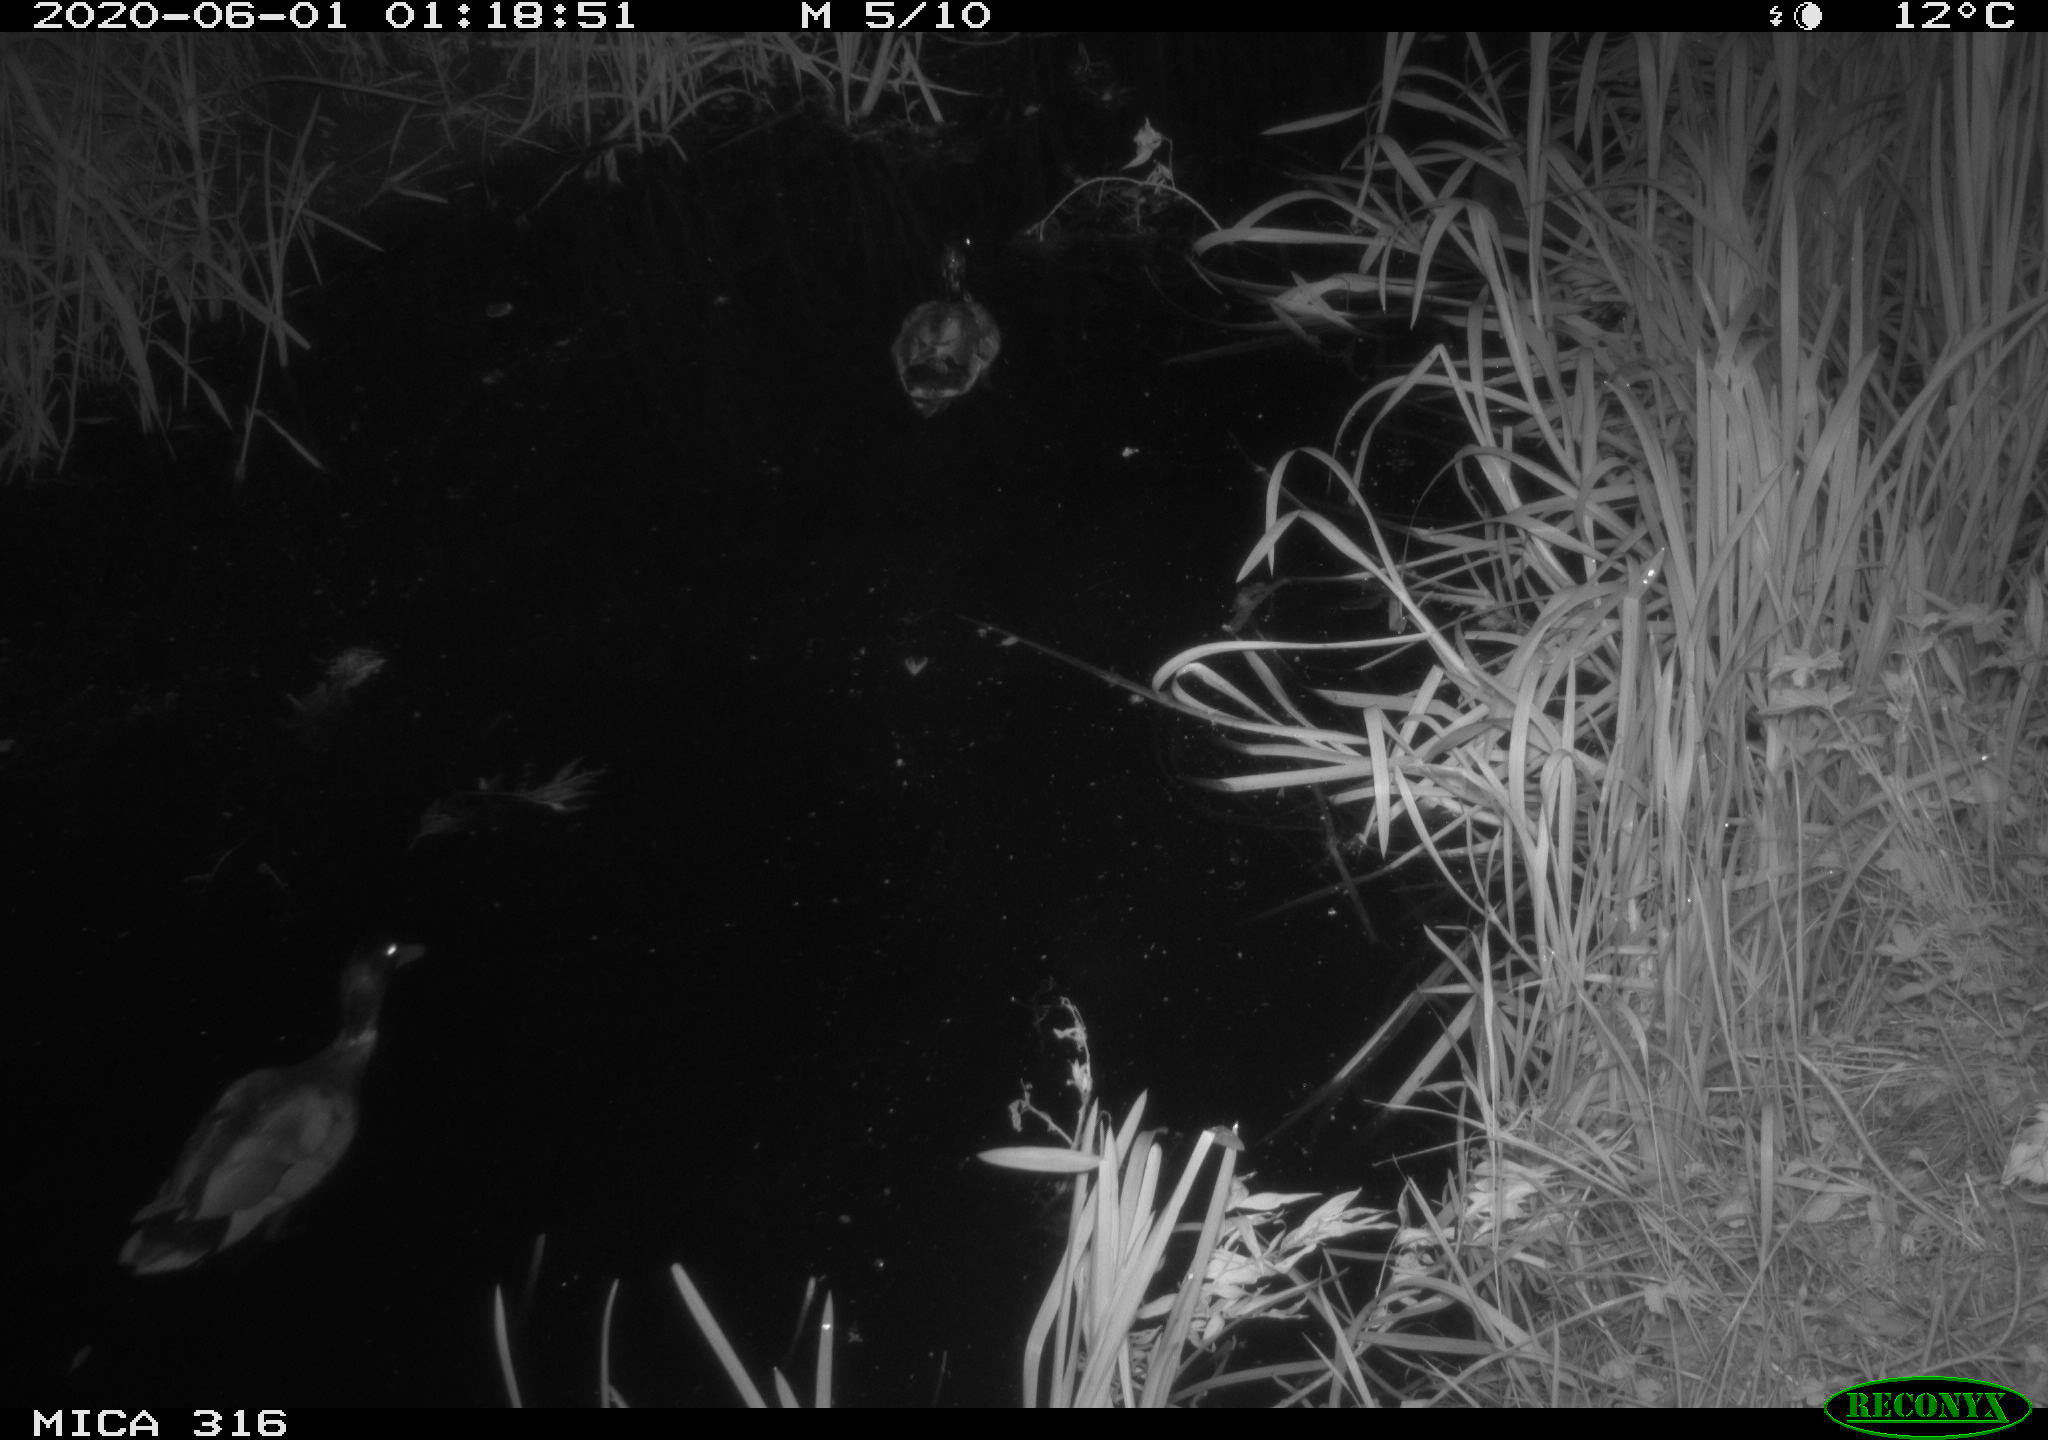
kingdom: Animalia
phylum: Chordata
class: Aves
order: Anseriformes
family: Anatidae
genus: Anas
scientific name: Anas platyrhynchos
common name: Mallard
